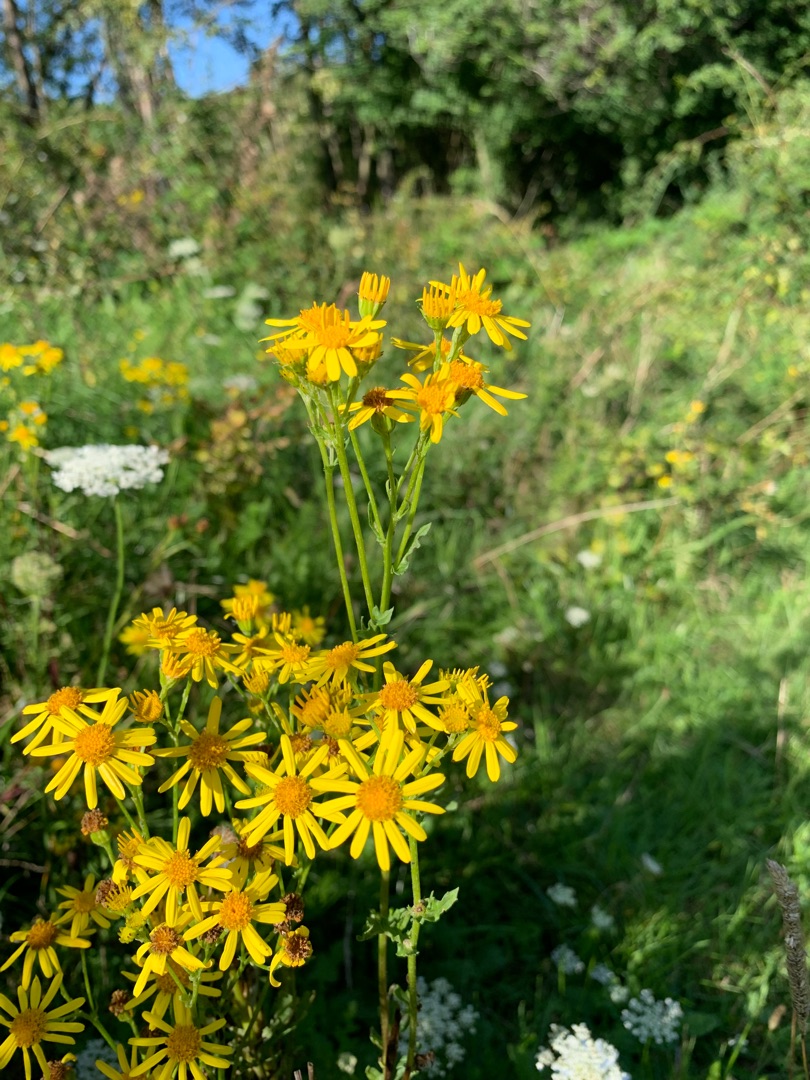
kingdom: Plantae
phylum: Tracheophyta
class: Magnoliopsida
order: Asterales
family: Asteraceae
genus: Jacobaea
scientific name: Jacobaea vulgaris
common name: Eng-brandbæger
